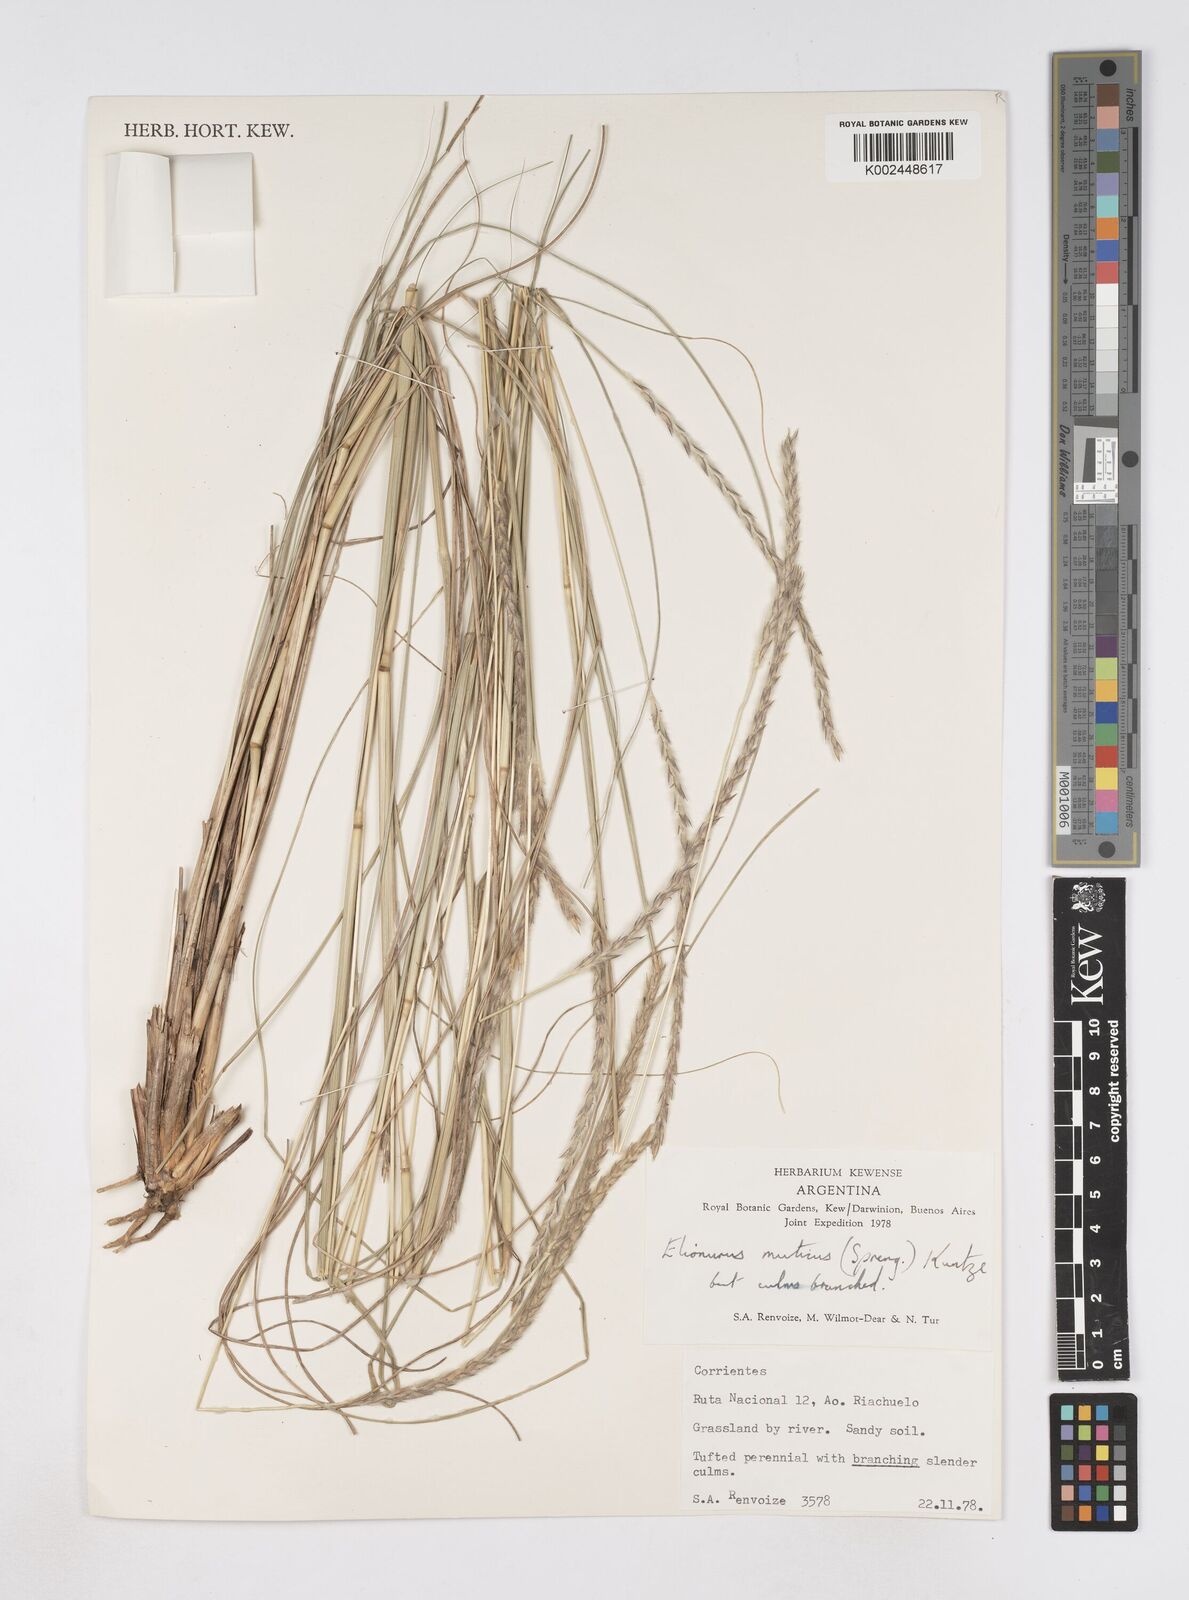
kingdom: Plantae
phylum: Tracheophyta
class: Liliopsida
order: Poales
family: Poaceae
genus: Elionurus
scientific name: Elionurus muticus
